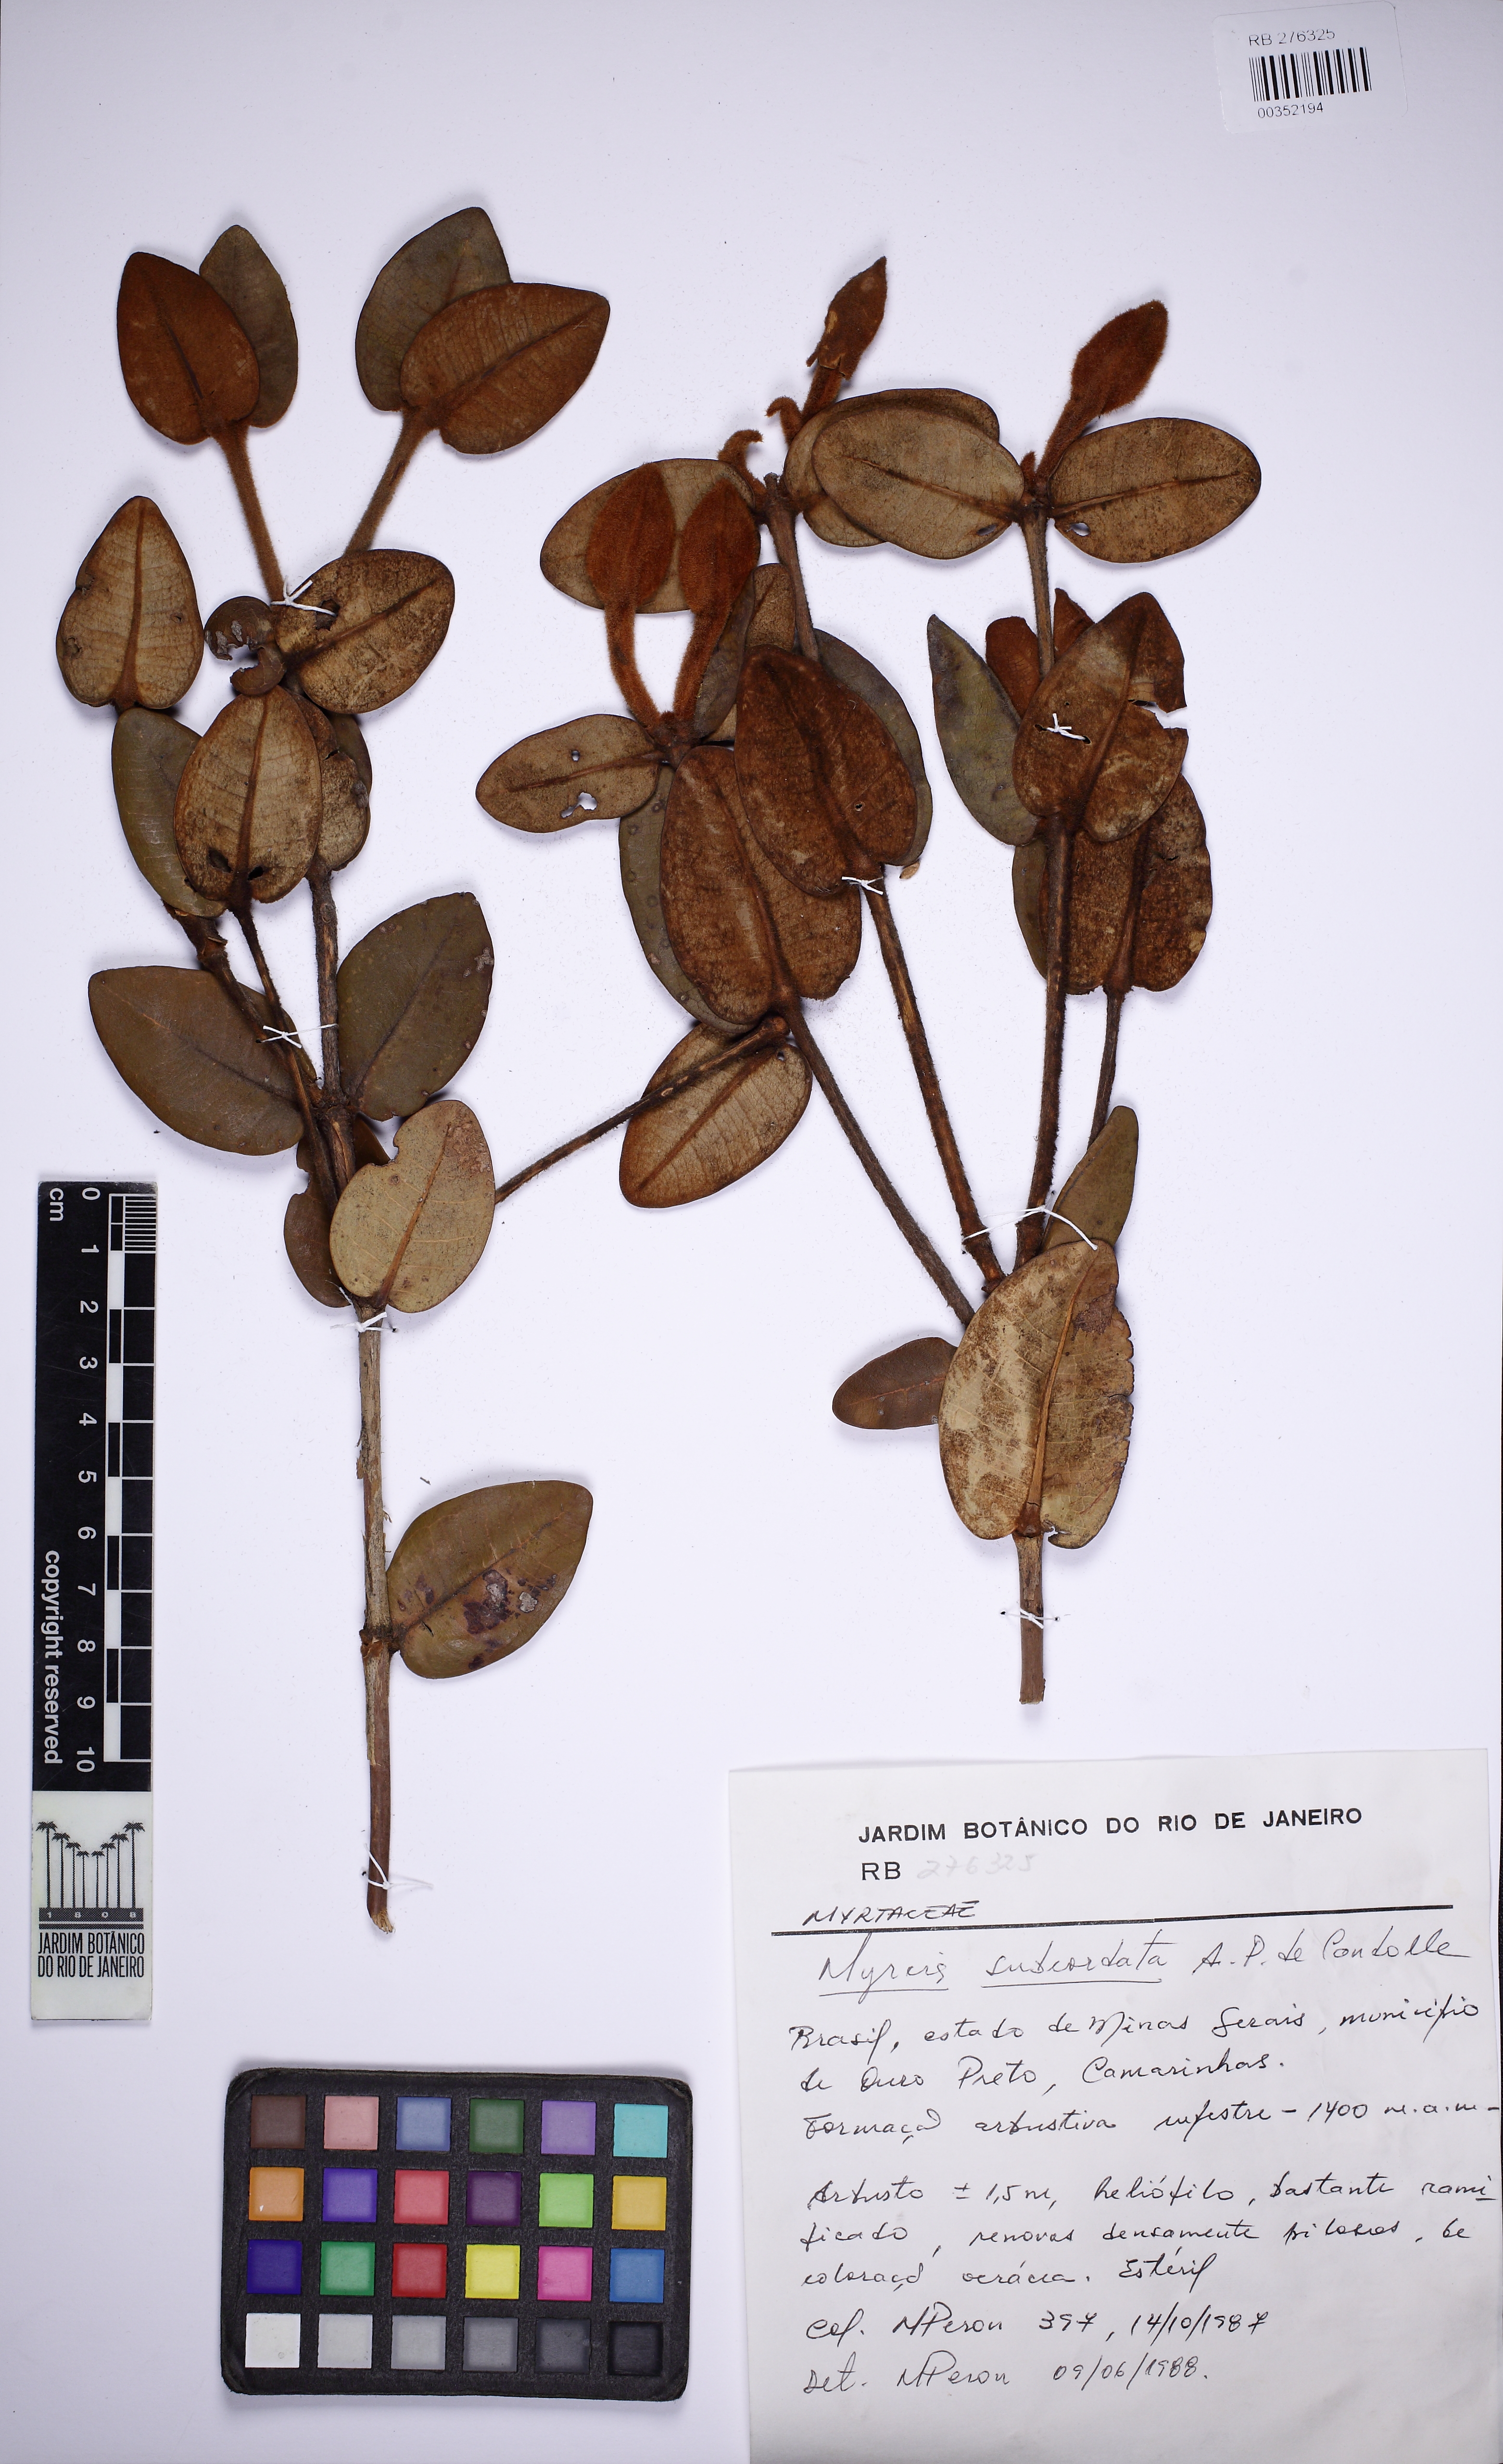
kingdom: Plantae
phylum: Tracheophyta
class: Magnoliopsida
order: Myrtales
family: Myrtaceae
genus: Myrcia
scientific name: Myrcia subcordata
